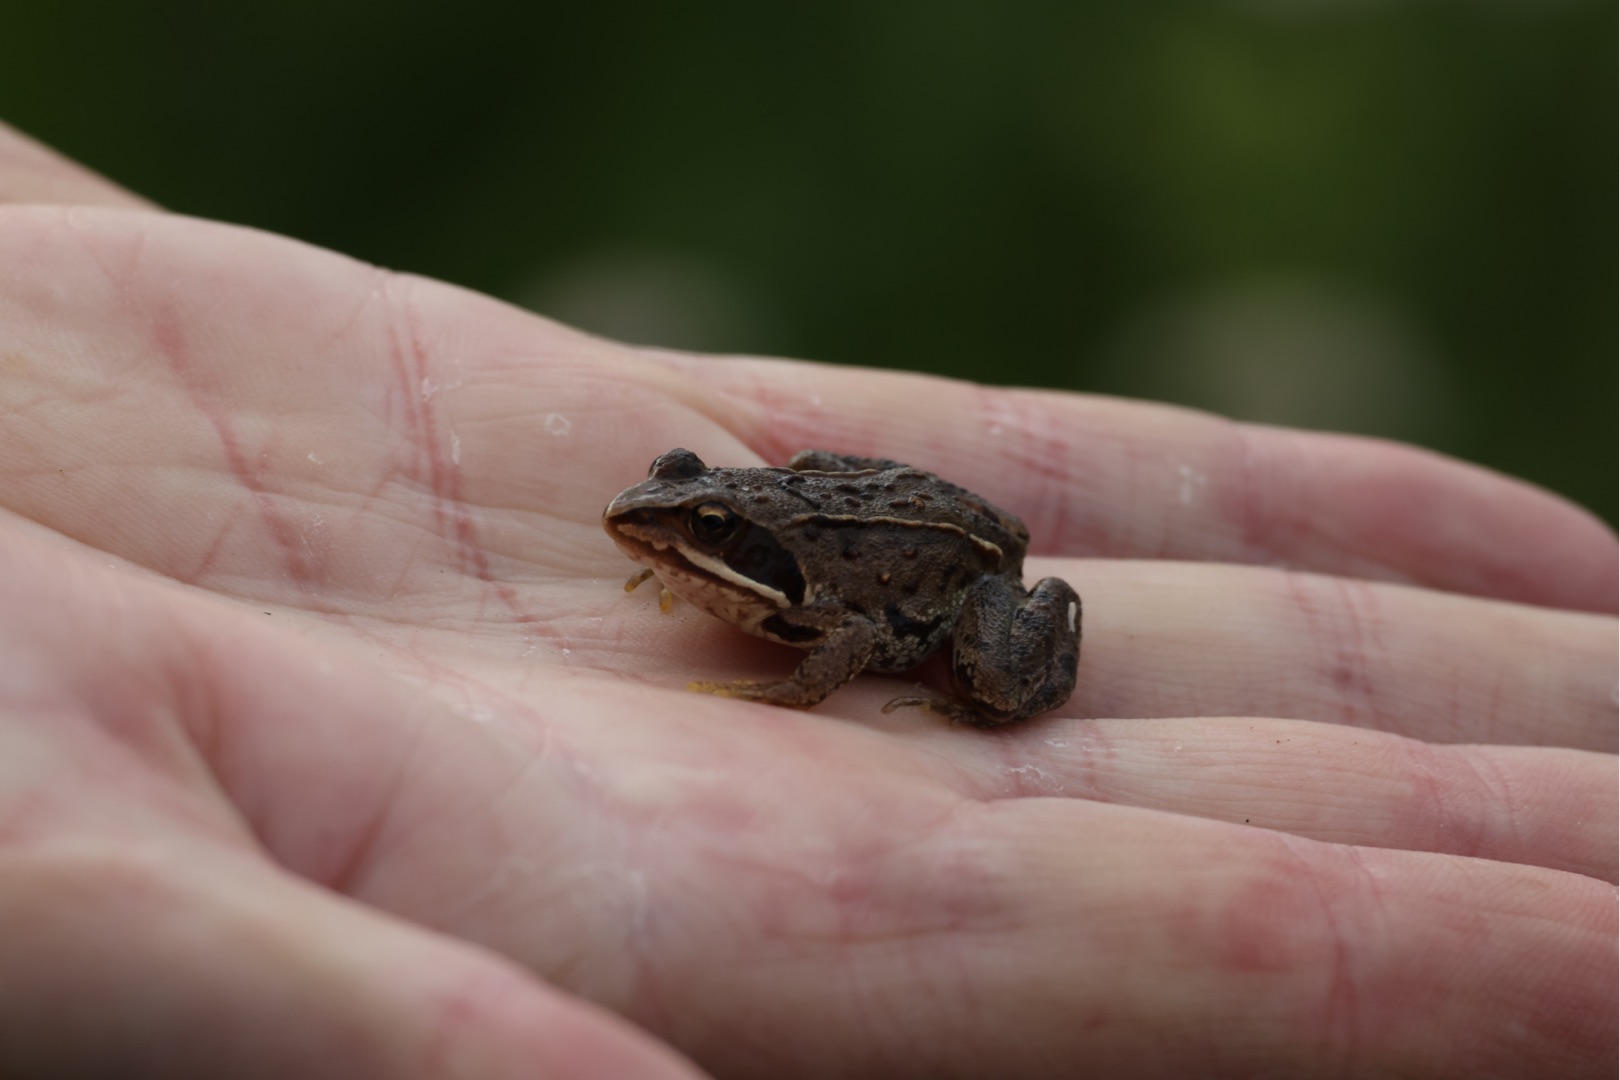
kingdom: Animalia
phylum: Chordata
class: Amphibia
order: Anura
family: Ranidae
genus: Rana
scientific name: Rana arvalis
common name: Spidssnudet frø
